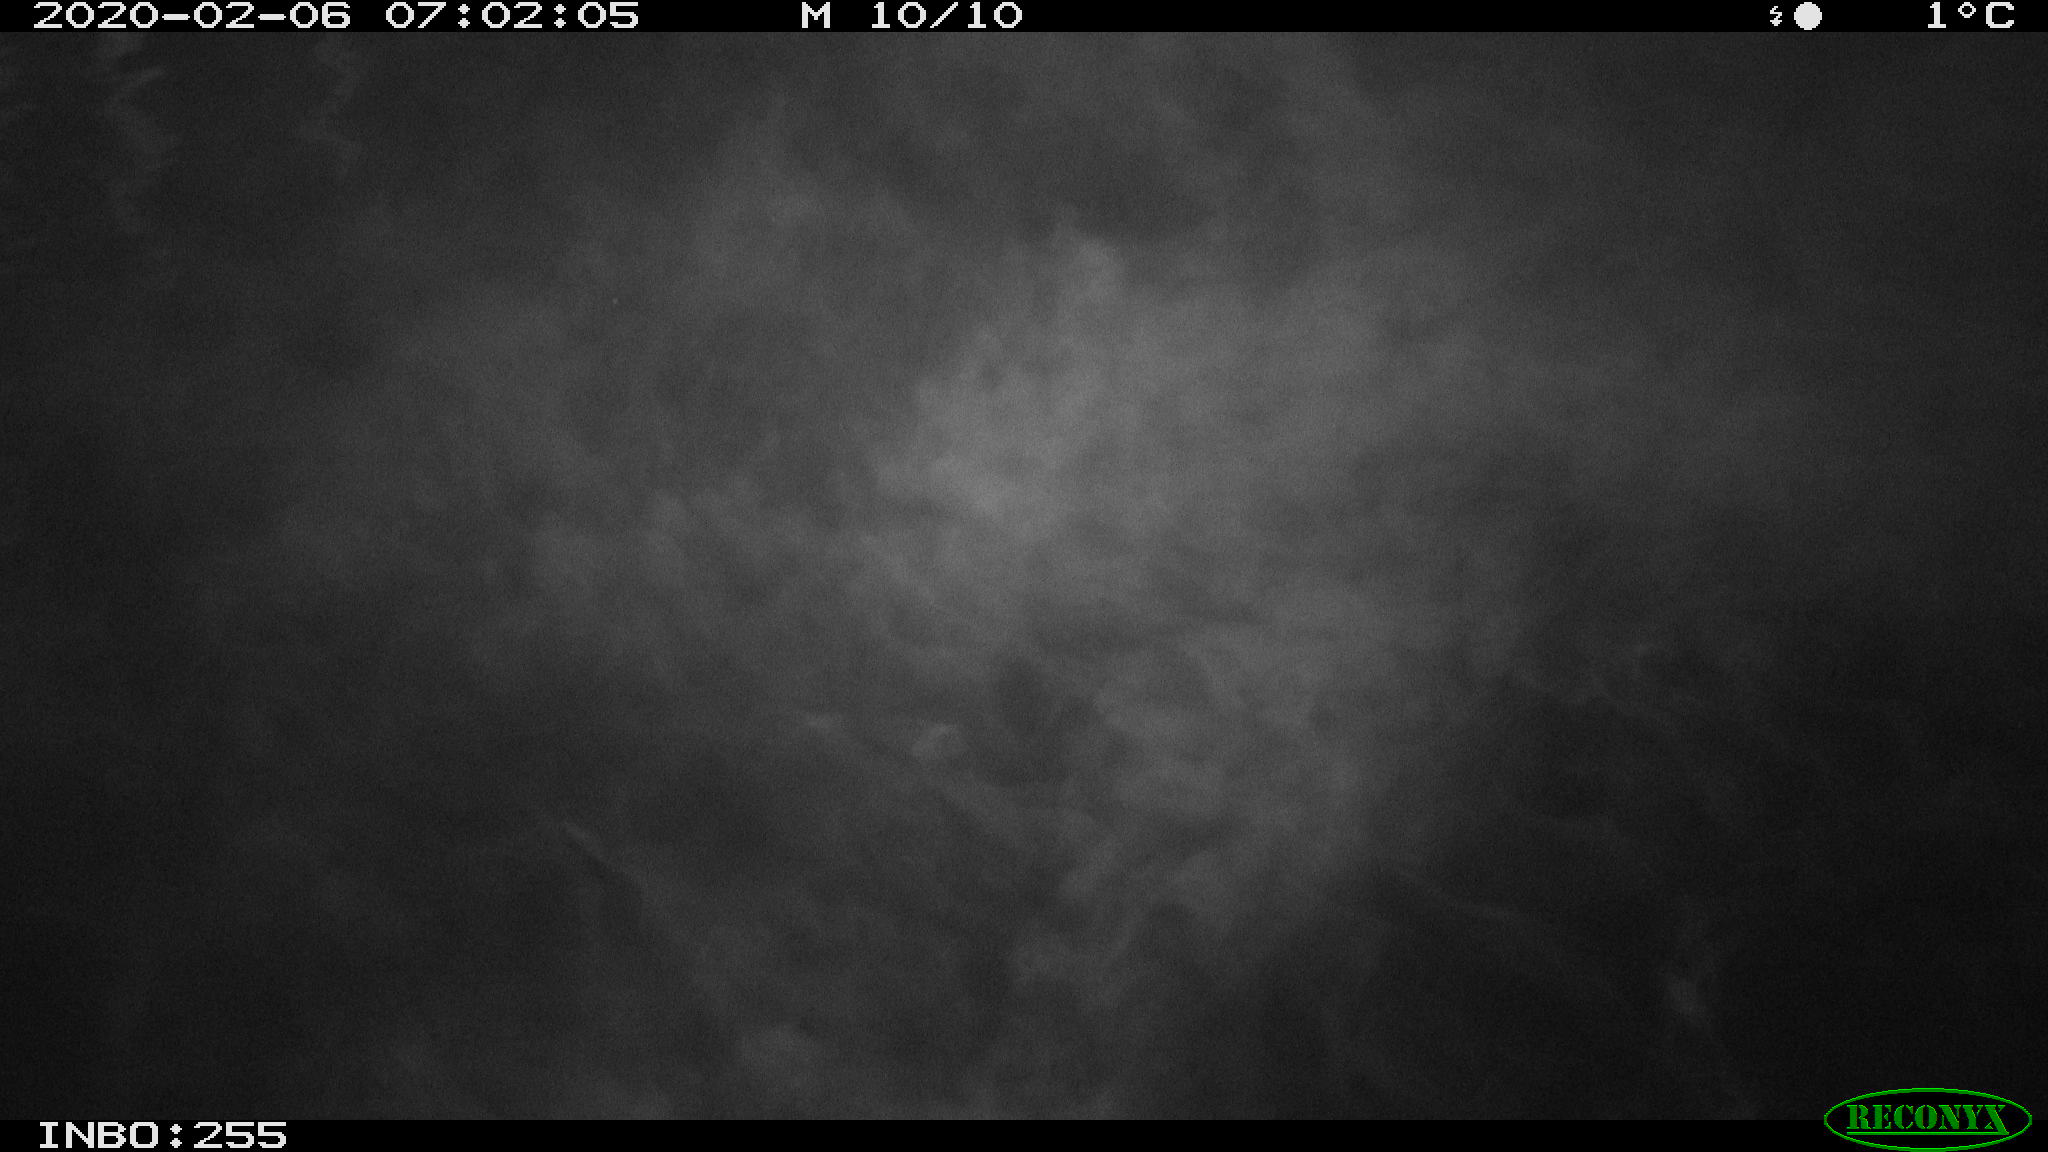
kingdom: Animalia
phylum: Chordata
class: Aves
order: Anseriformes
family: Anatidae
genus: Anas
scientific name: Anas platyrhynchos
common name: Mallard
